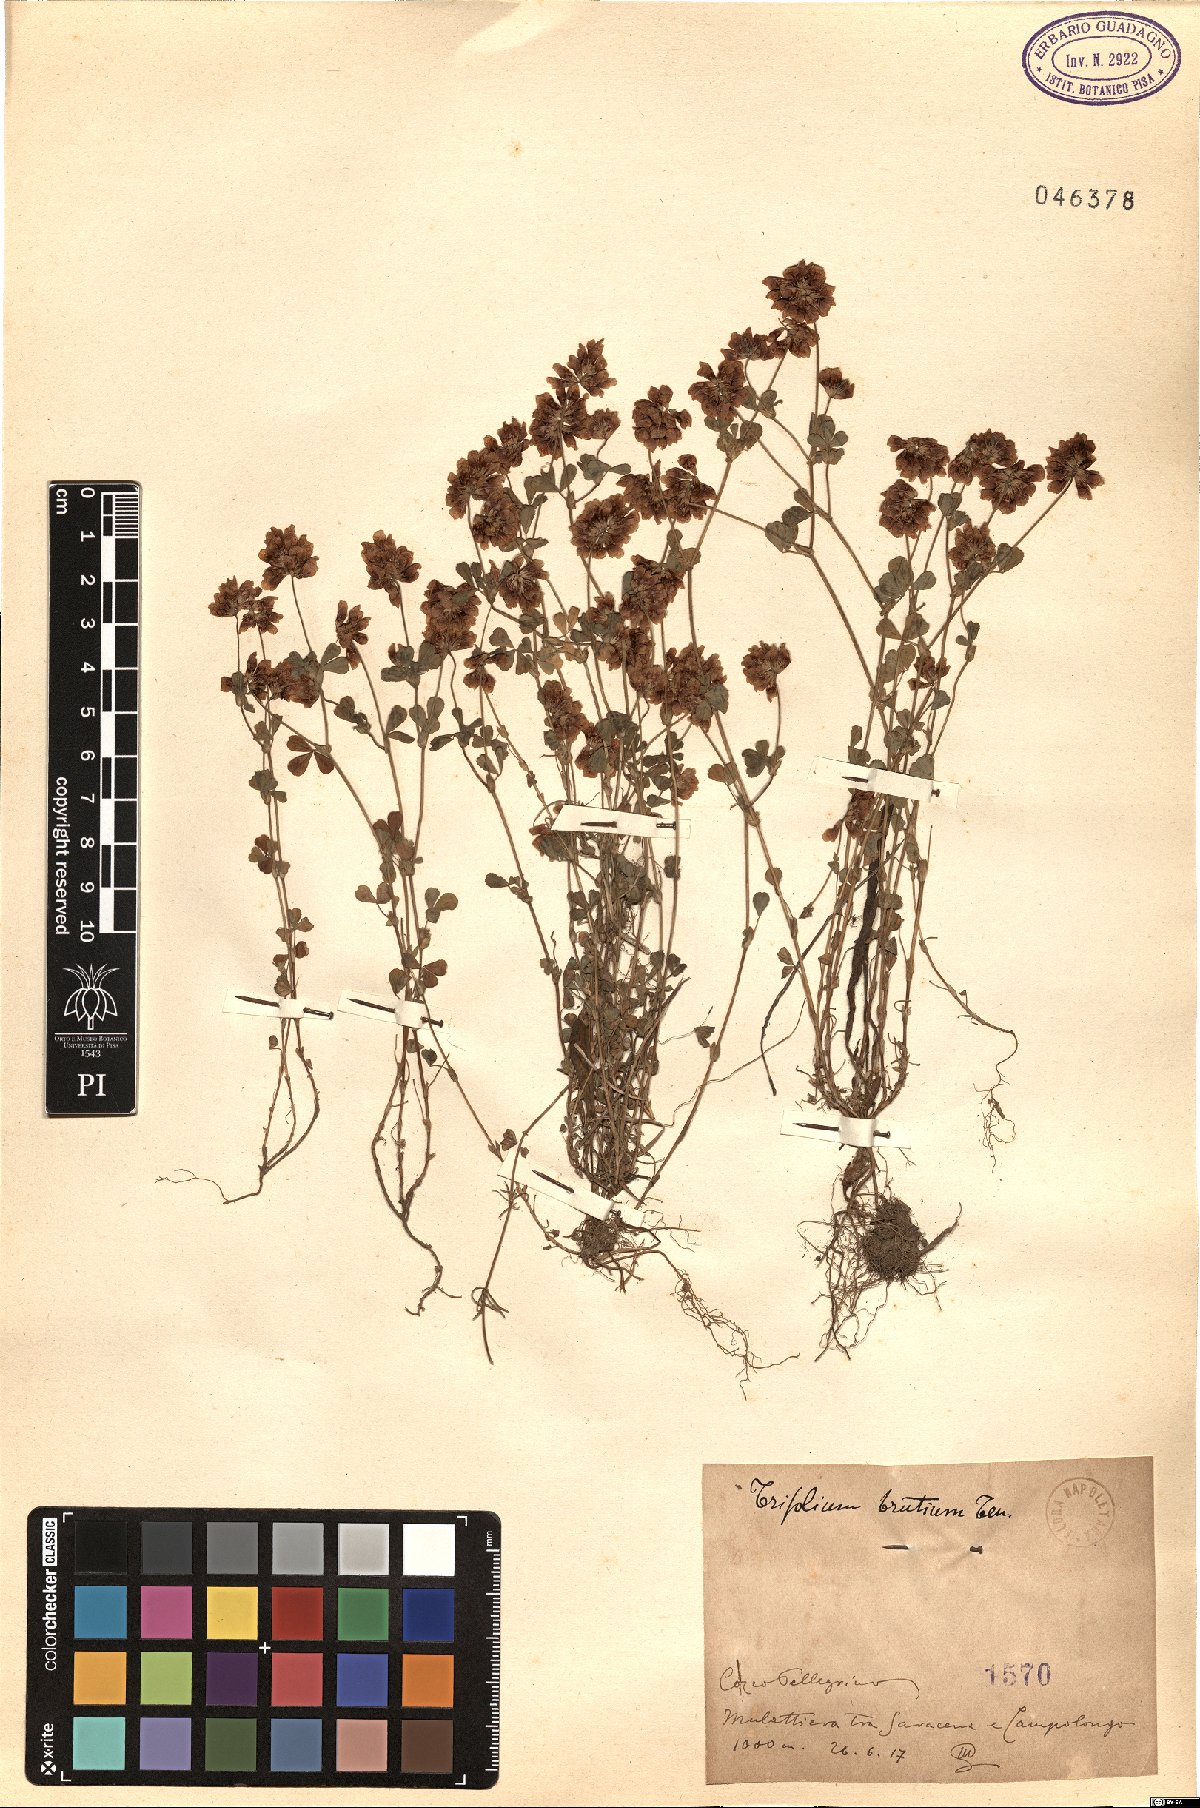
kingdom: Plantae
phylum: Tracheophyta
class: Magnoliopsida
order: Fabales
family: Fabaceae
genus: Trifolium
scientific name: Trifolium brutium
